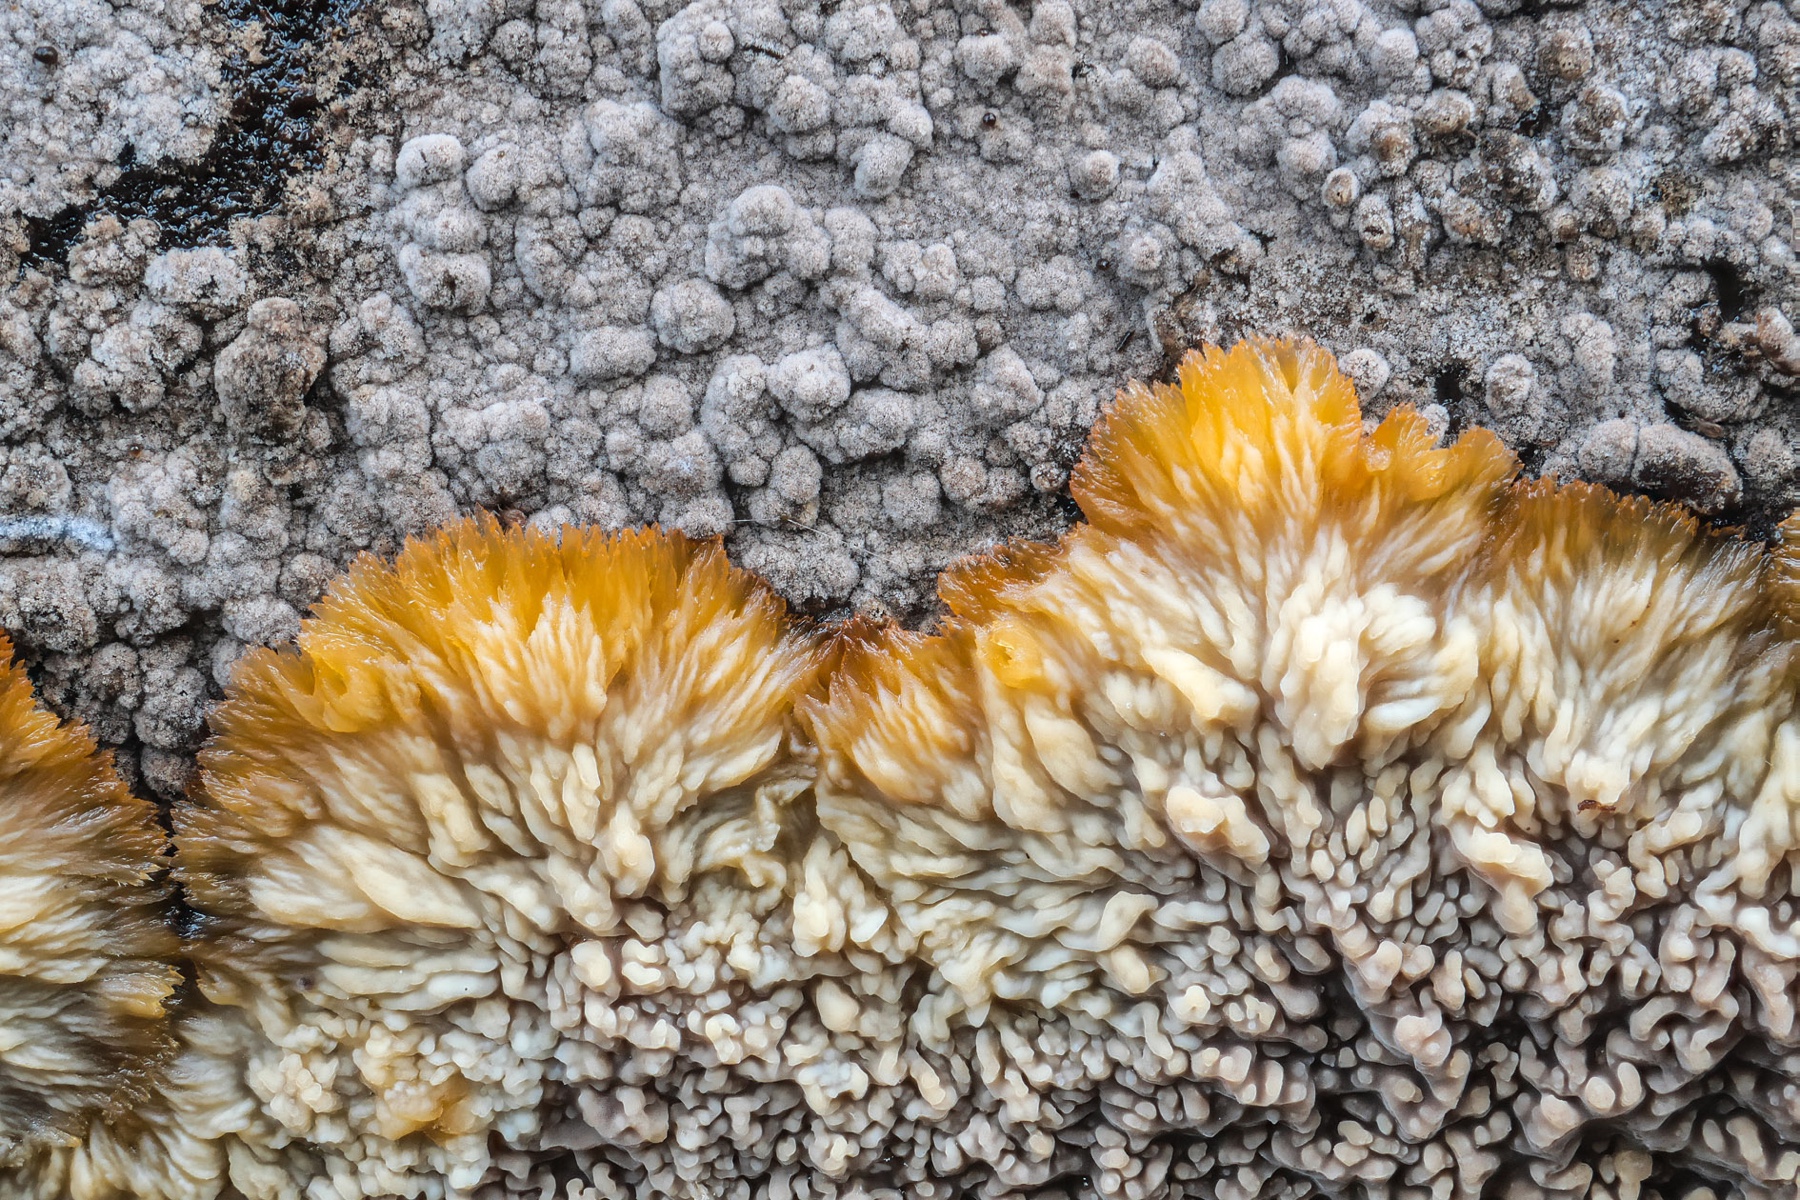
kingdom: Fungi
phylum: Basidiomycota
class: Agaricomycetes
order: Polyporales
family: Meruliaceae
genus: Phlebia
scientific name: Phlebia radiata
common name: stråle-åresvamp
